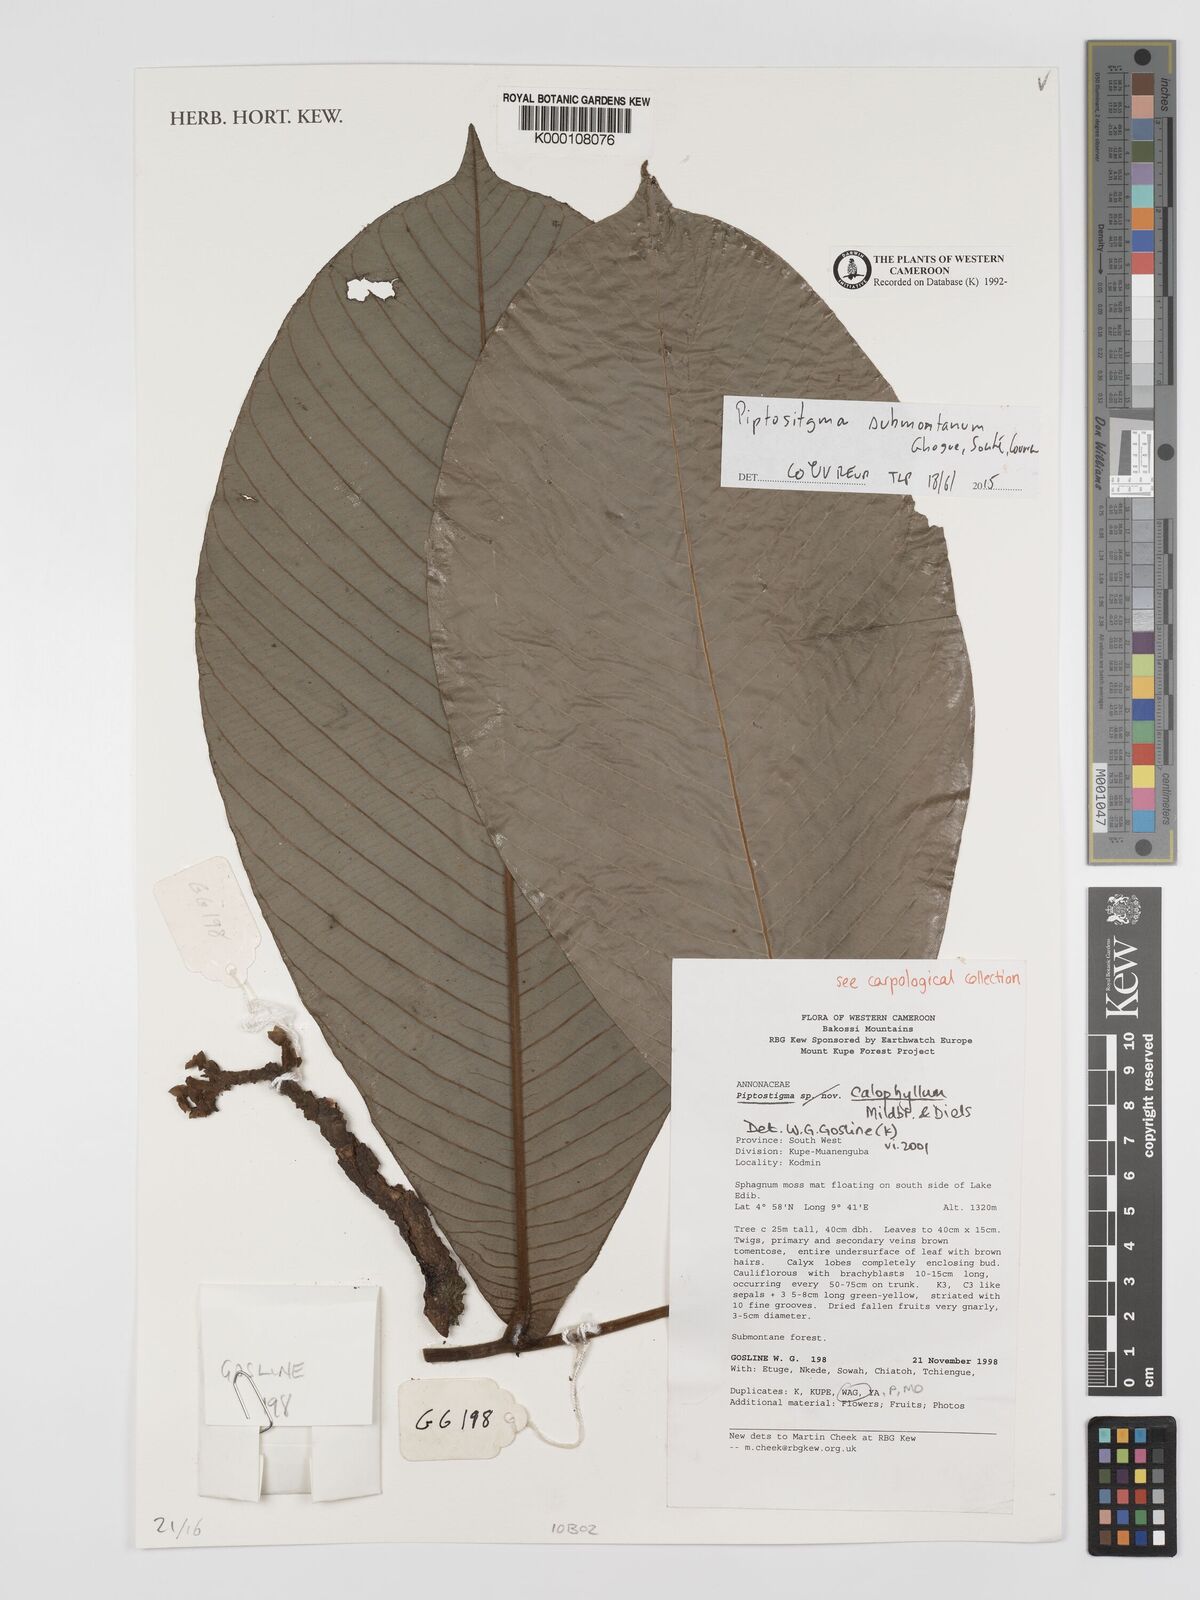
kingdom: Plantae
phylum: Tracheophyta
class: Magnoliopsida
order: Magnoliales
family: Annonaceae
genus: Piptostigma
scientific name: Piptostigma calophyllum
